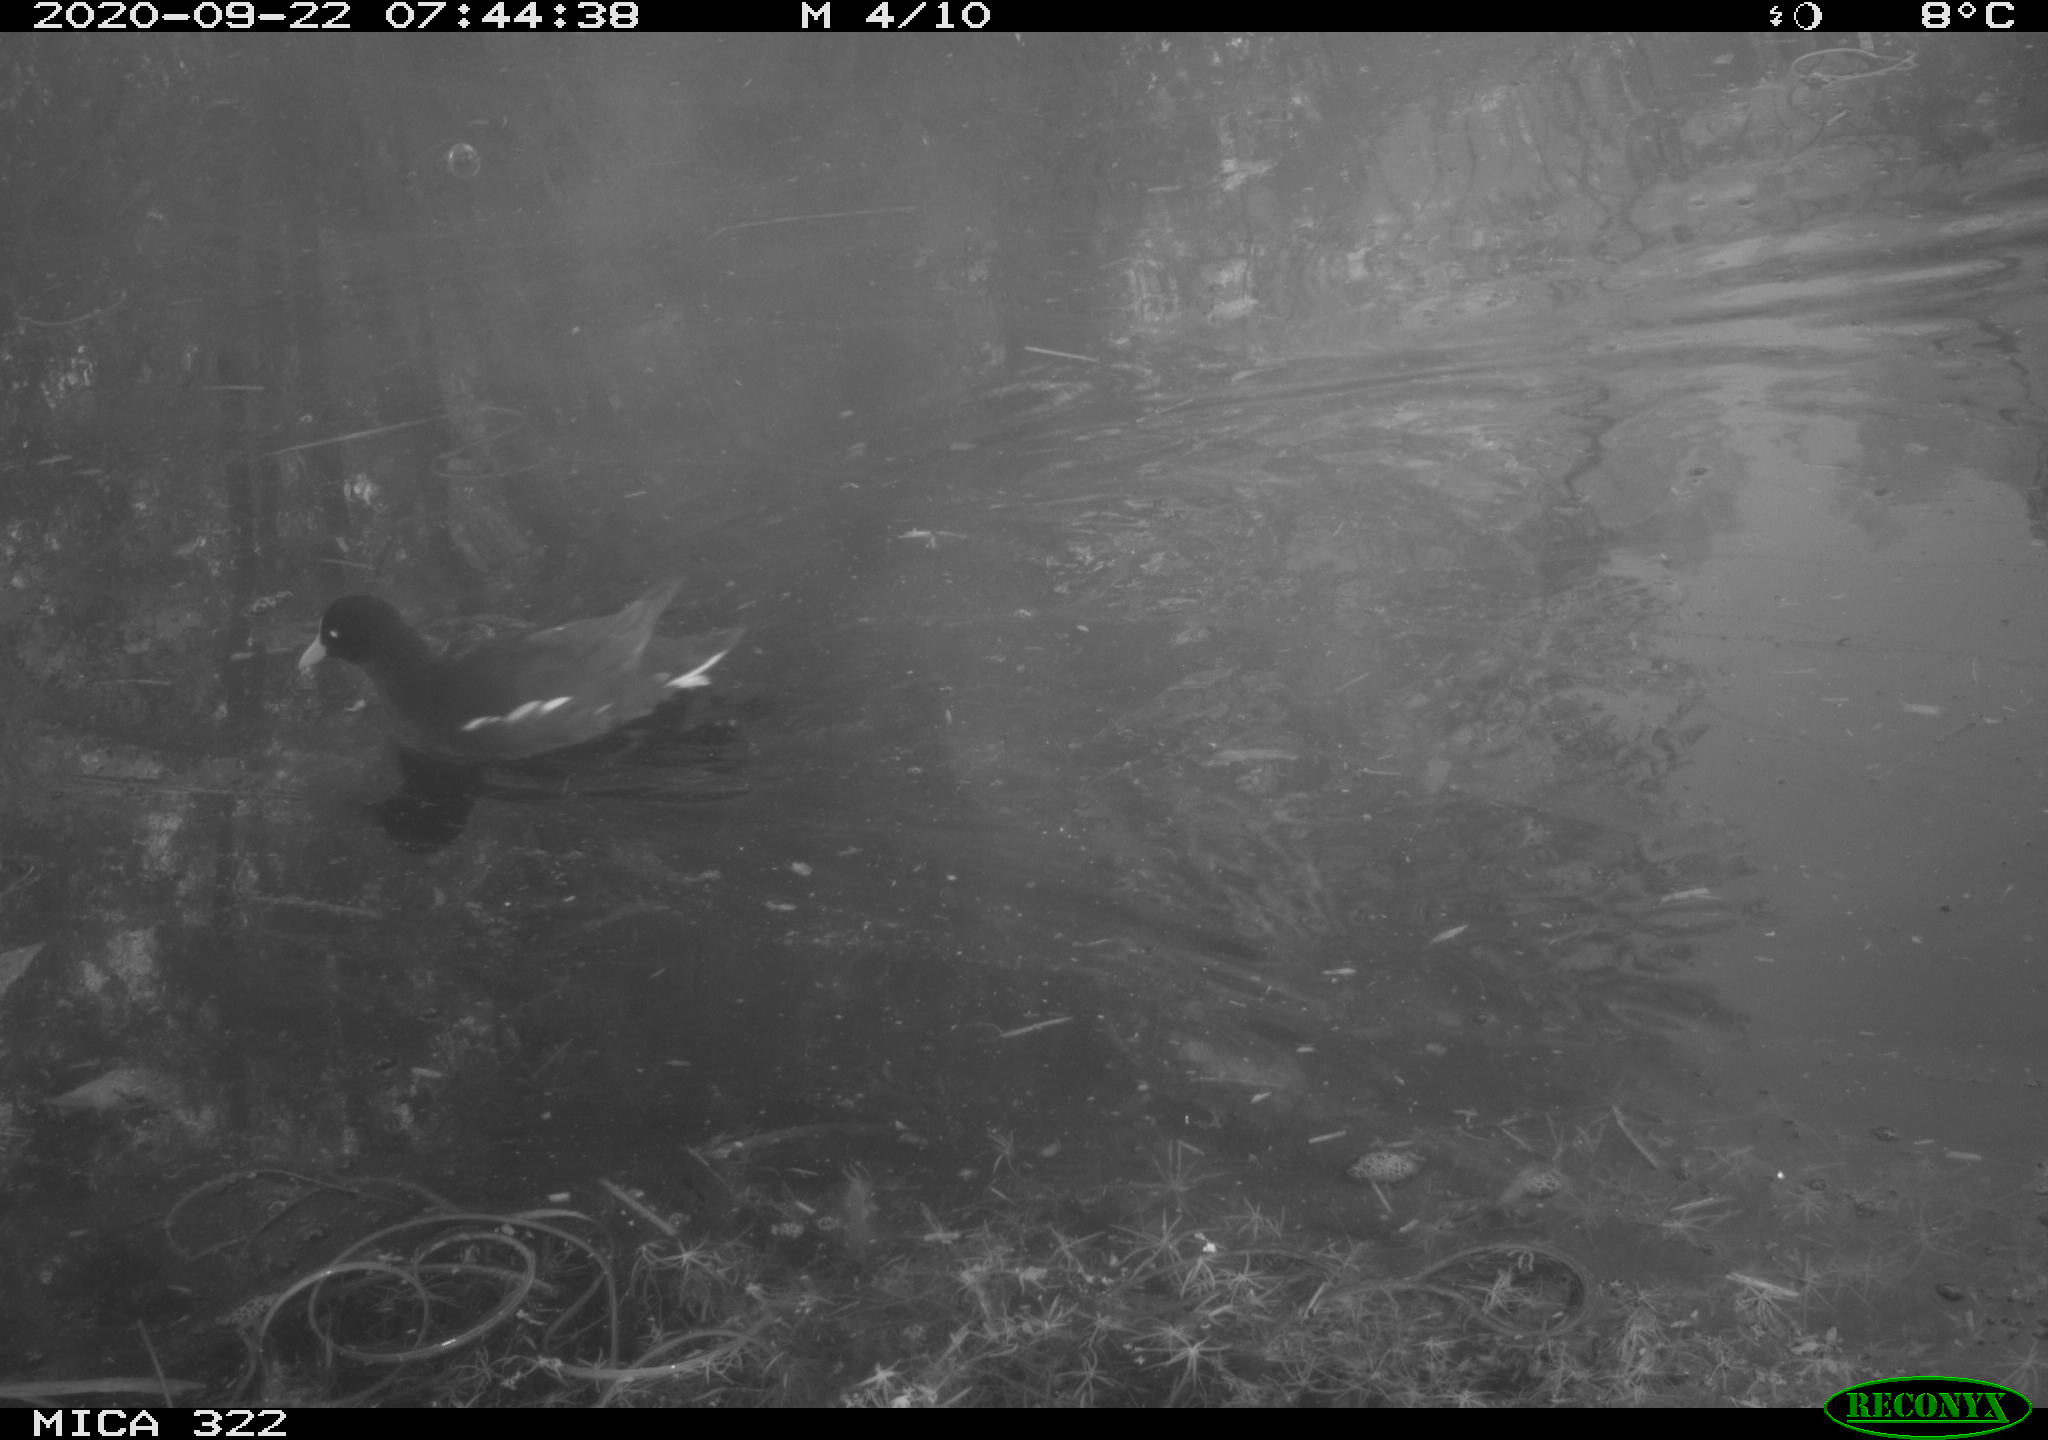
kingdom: Animalia
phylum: Chordata
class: Aves
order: Gruiformes
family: Rallidae
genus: Gallinula
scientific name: Gallinula chloropus
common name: Common moorhen
